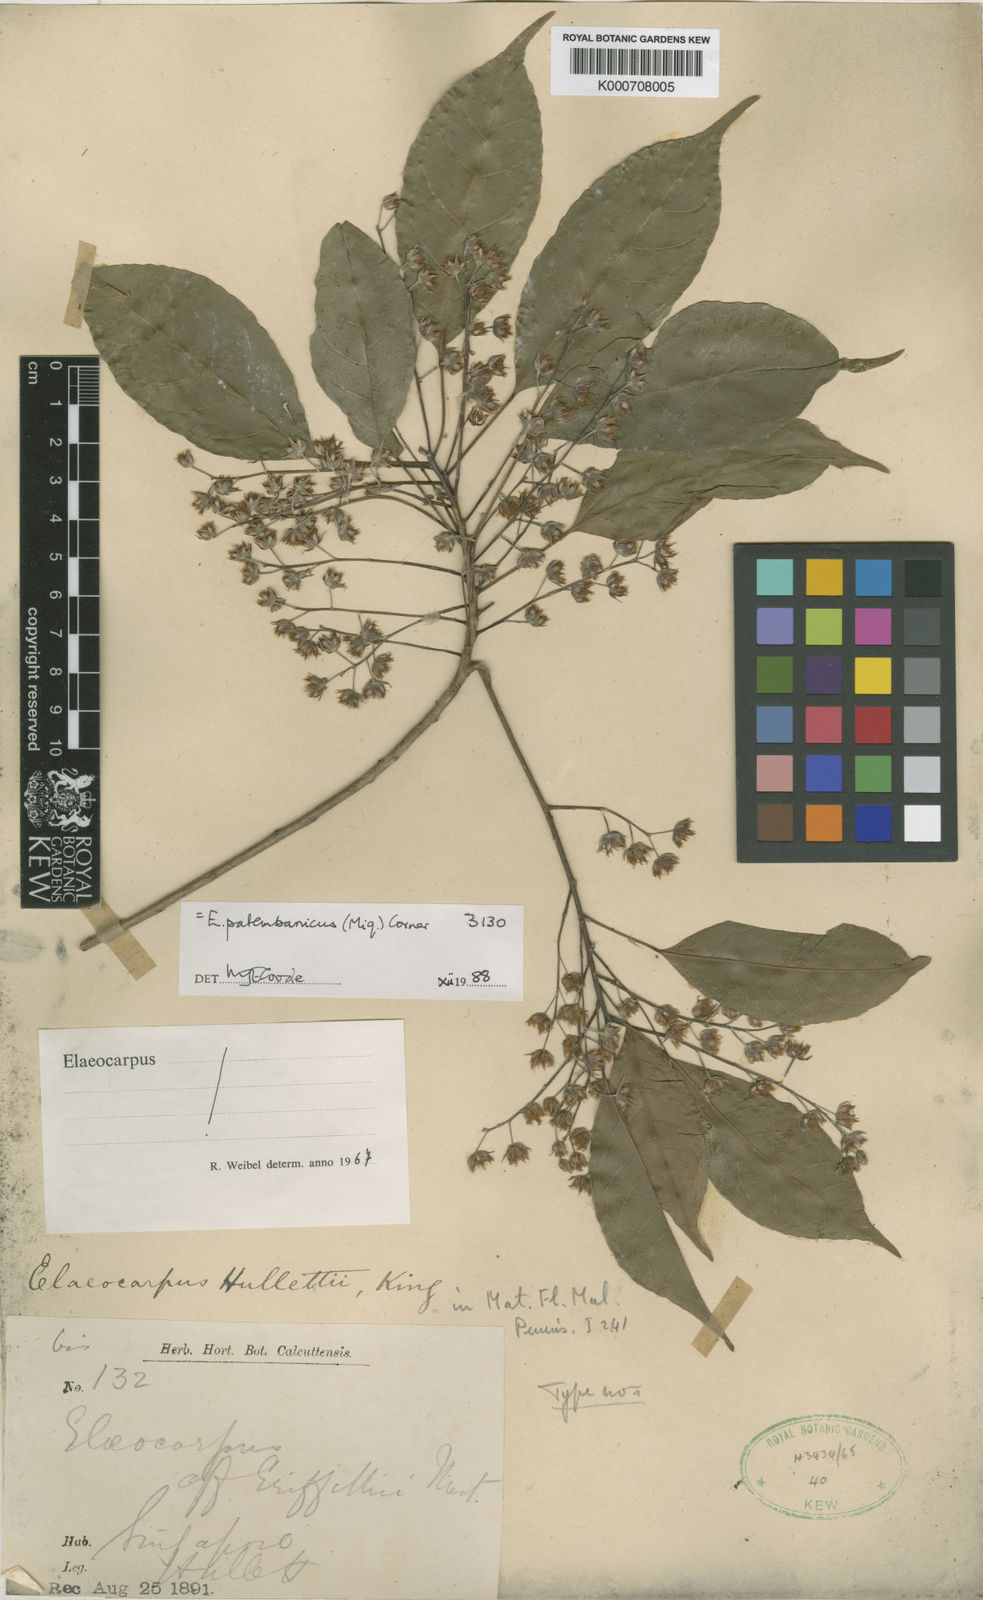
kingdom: Plantae
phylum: Tracheophyta
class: Magnoliopsida
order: Oxalidales
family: Elaeocarpaceae
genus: Elaeocarpus
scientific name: Elaeocarpus palembanicus
